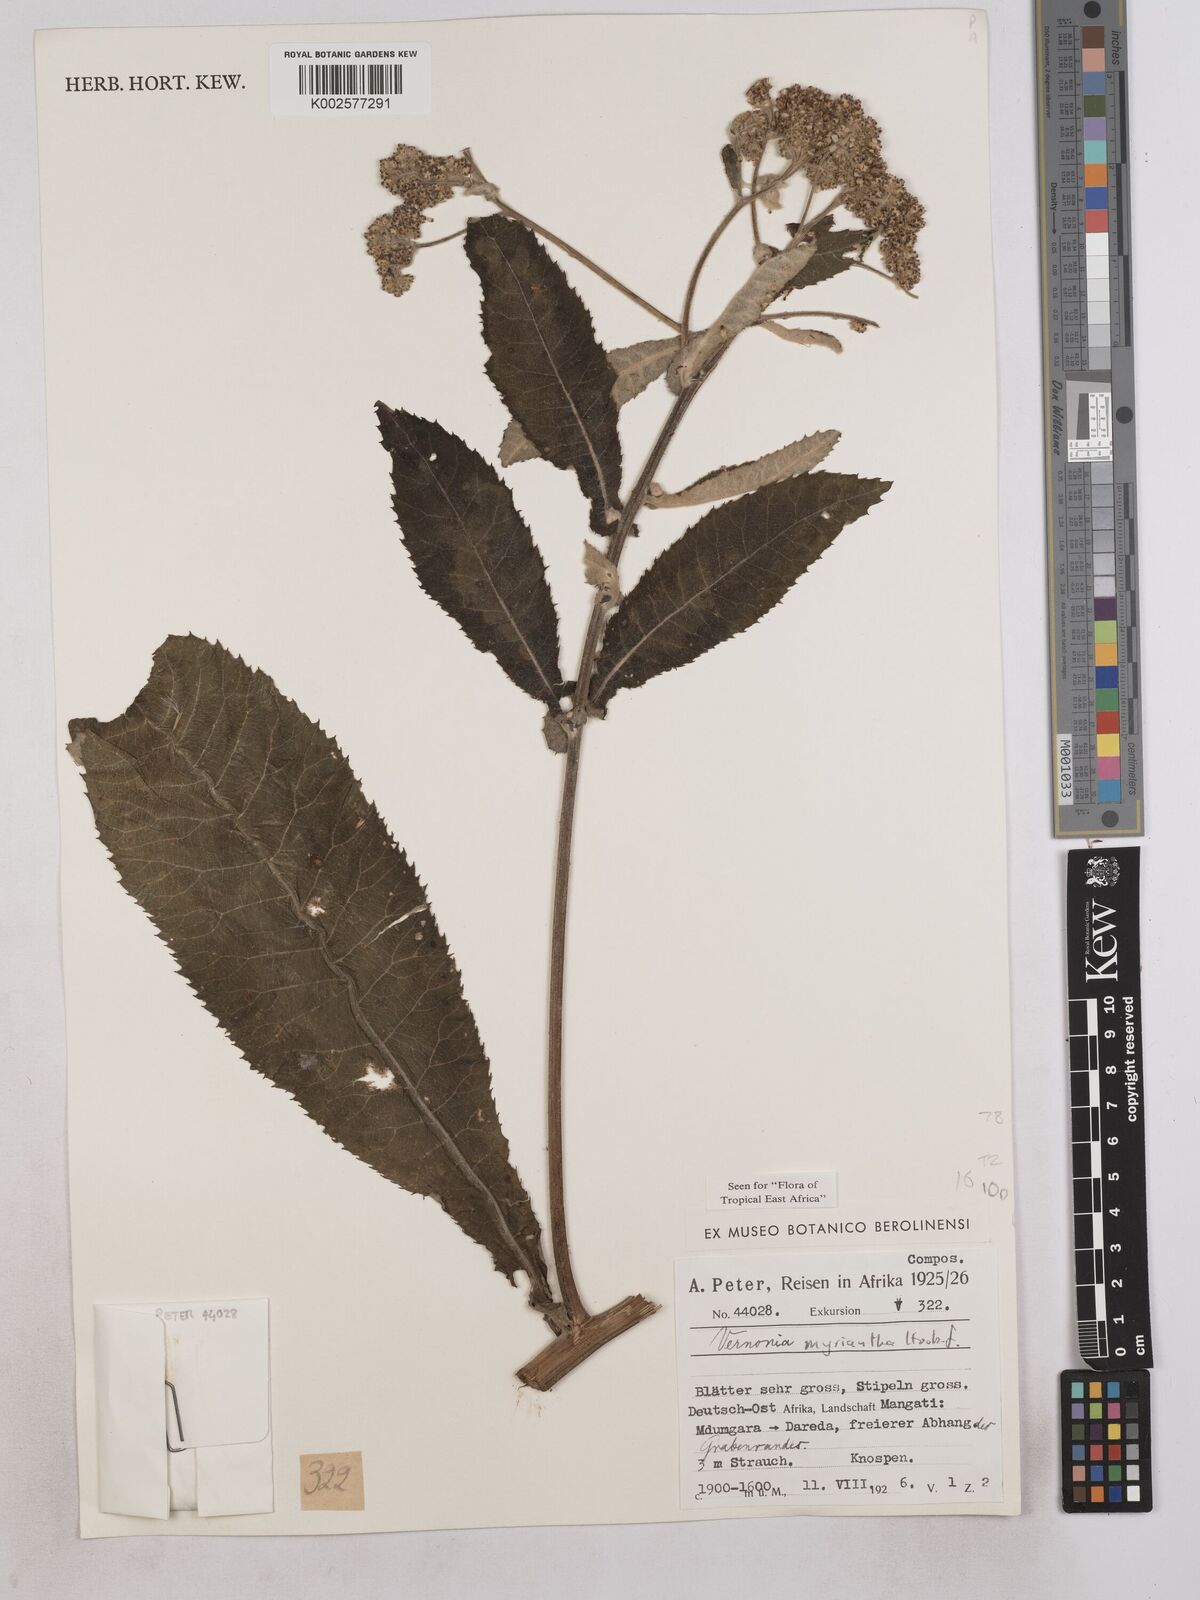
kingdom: Plantae
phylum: Tracheophyta
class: Magnoliopsida
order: Asterales
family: Asteraceae
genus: Gymnanthemum
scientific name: Gymnanthemum myrianthum
